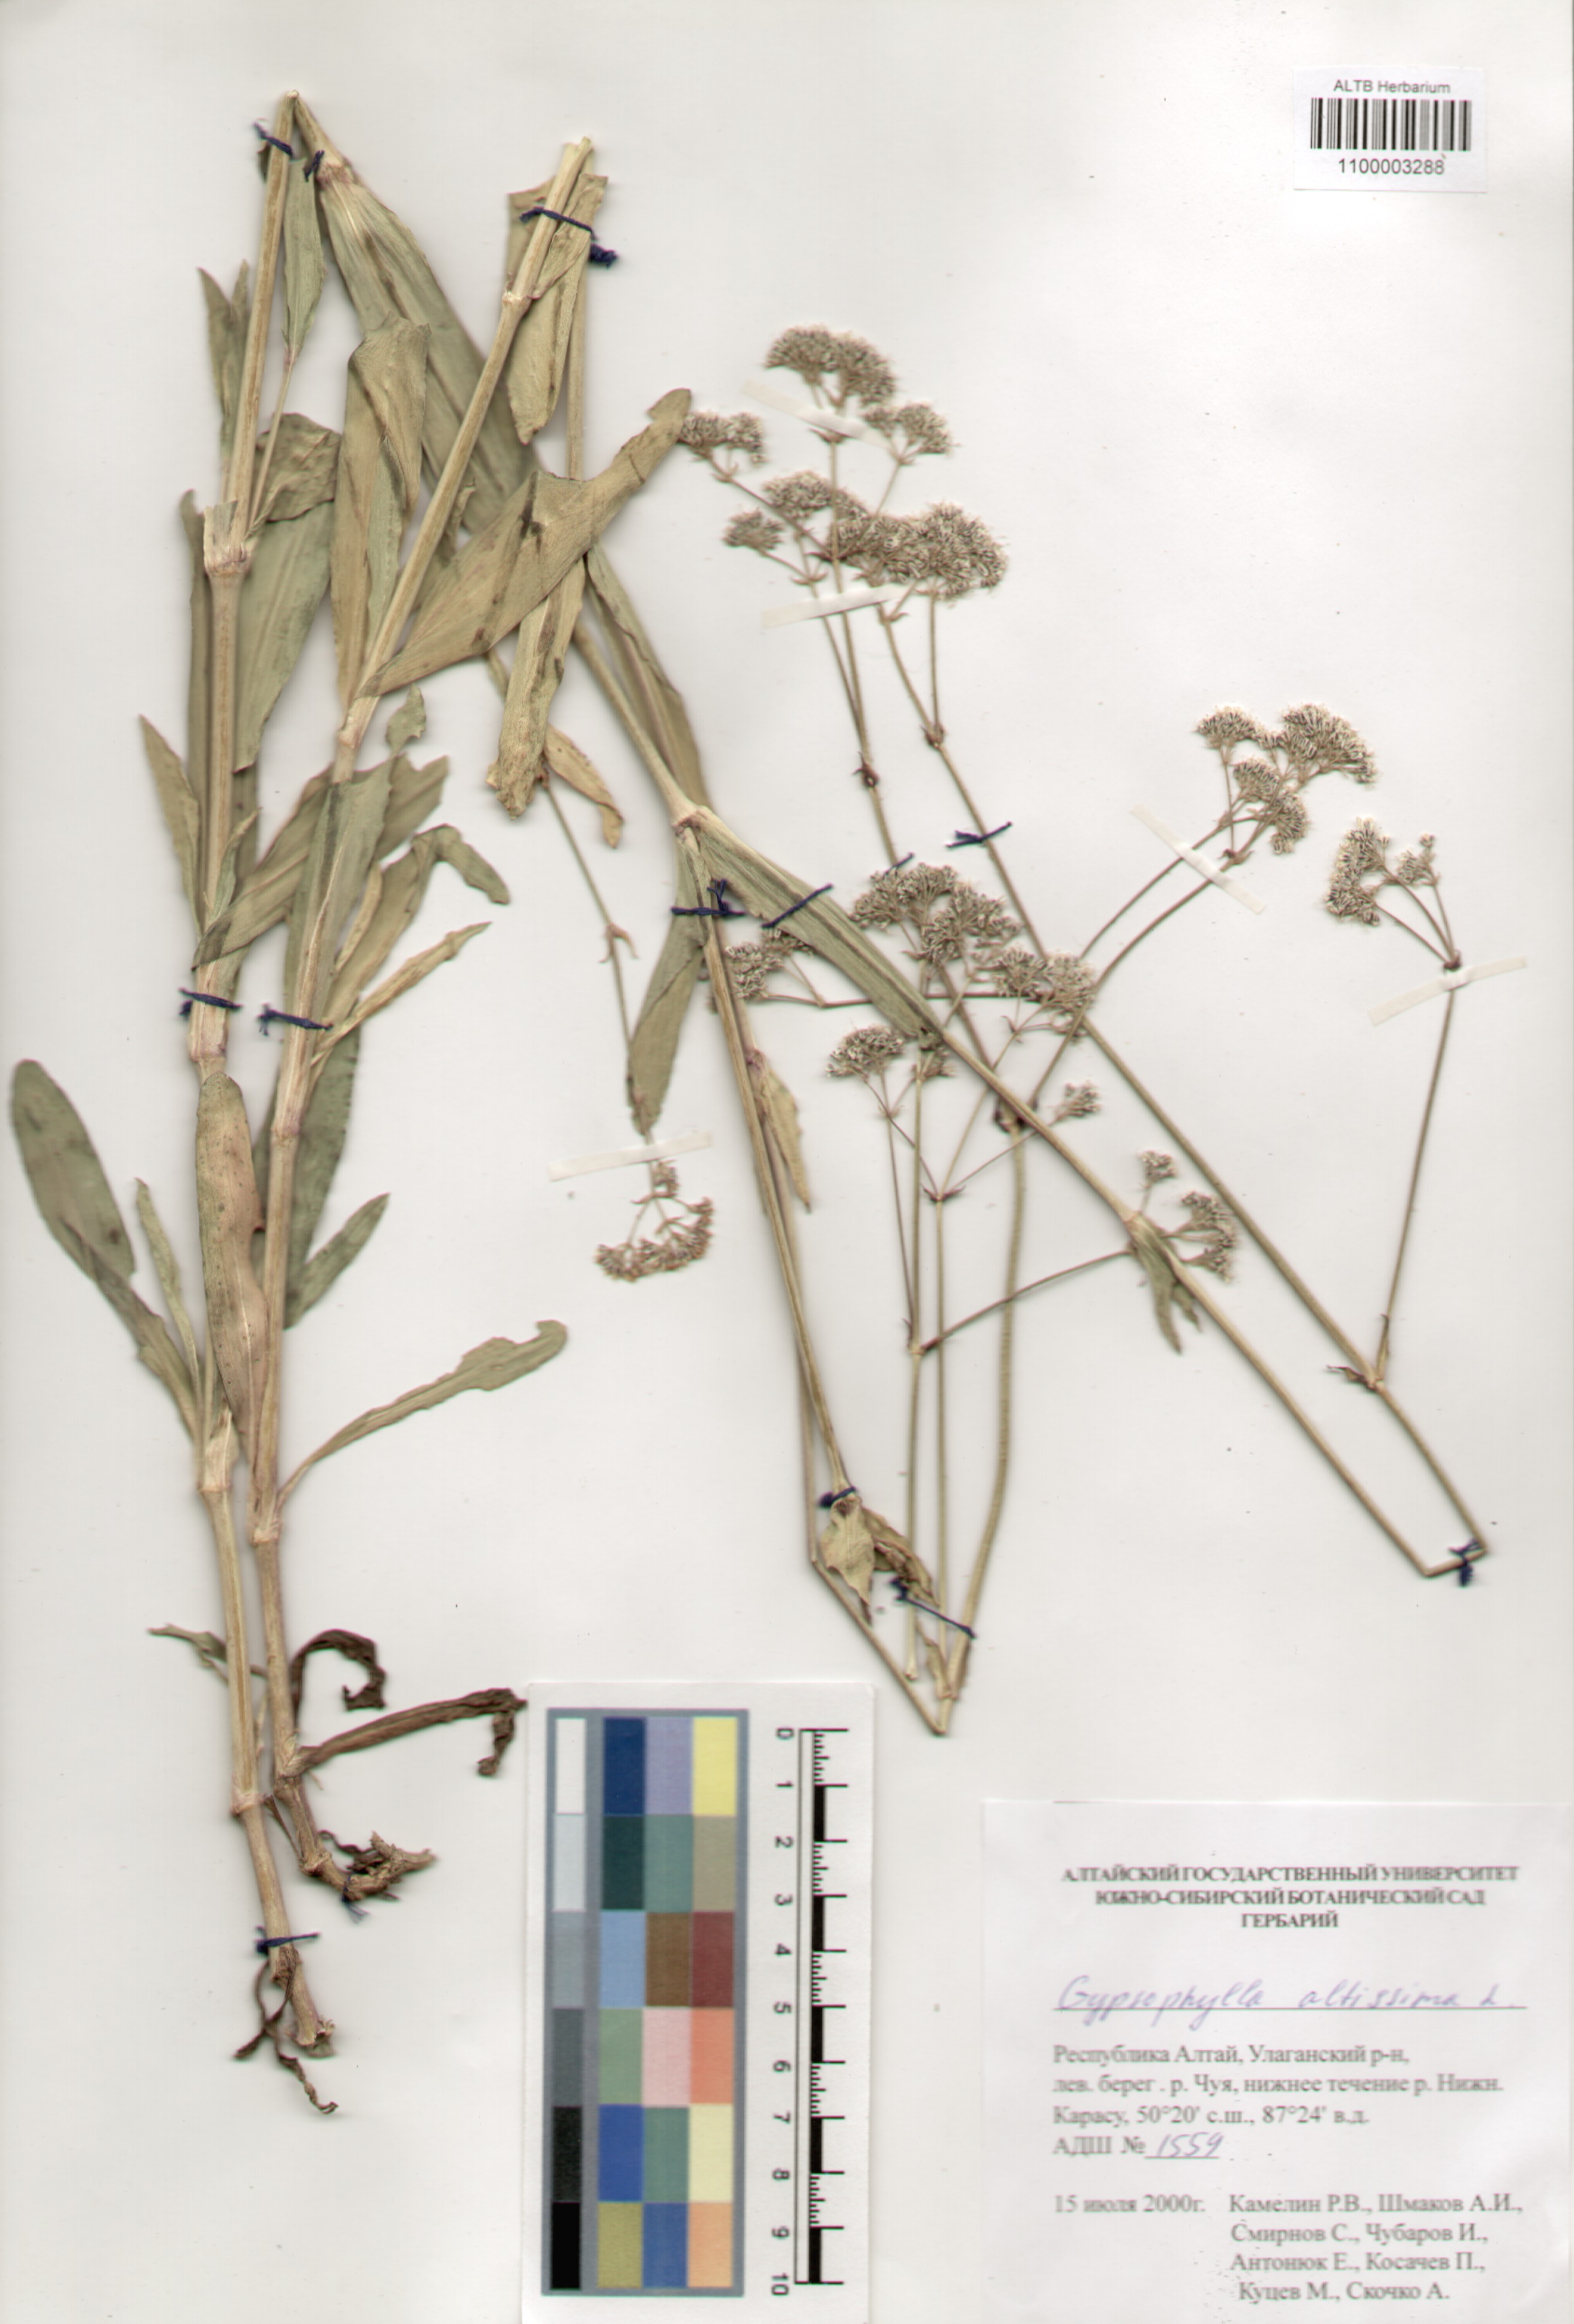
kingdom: Plantae
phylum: Tracheophyta
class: Magnoliopsida
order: Caryophyllales
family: Caryophyllaceae
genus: Gypsophila
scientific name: Gypsophila altissima
